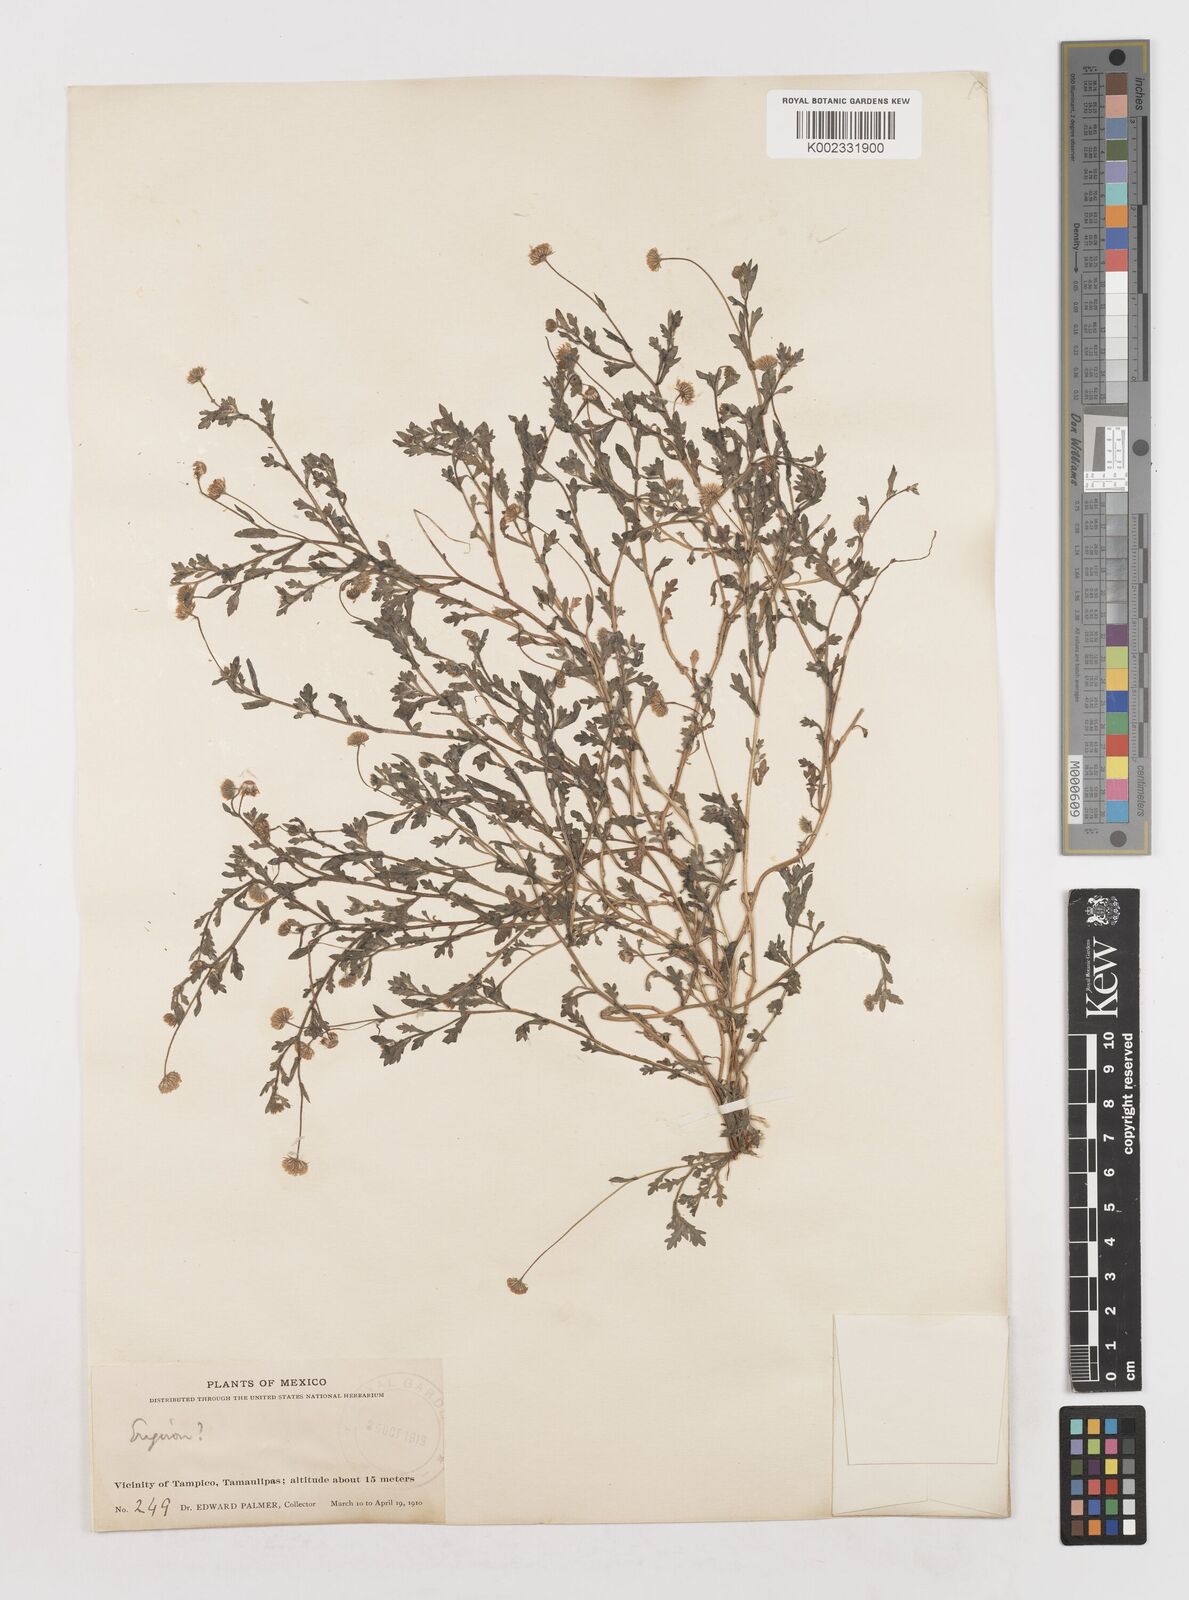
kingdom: Plantae
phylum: Tracheophyta
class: Magnoliopsida
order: Asterales
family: Asteraceae
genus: Erigeron
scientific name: Erigeron
